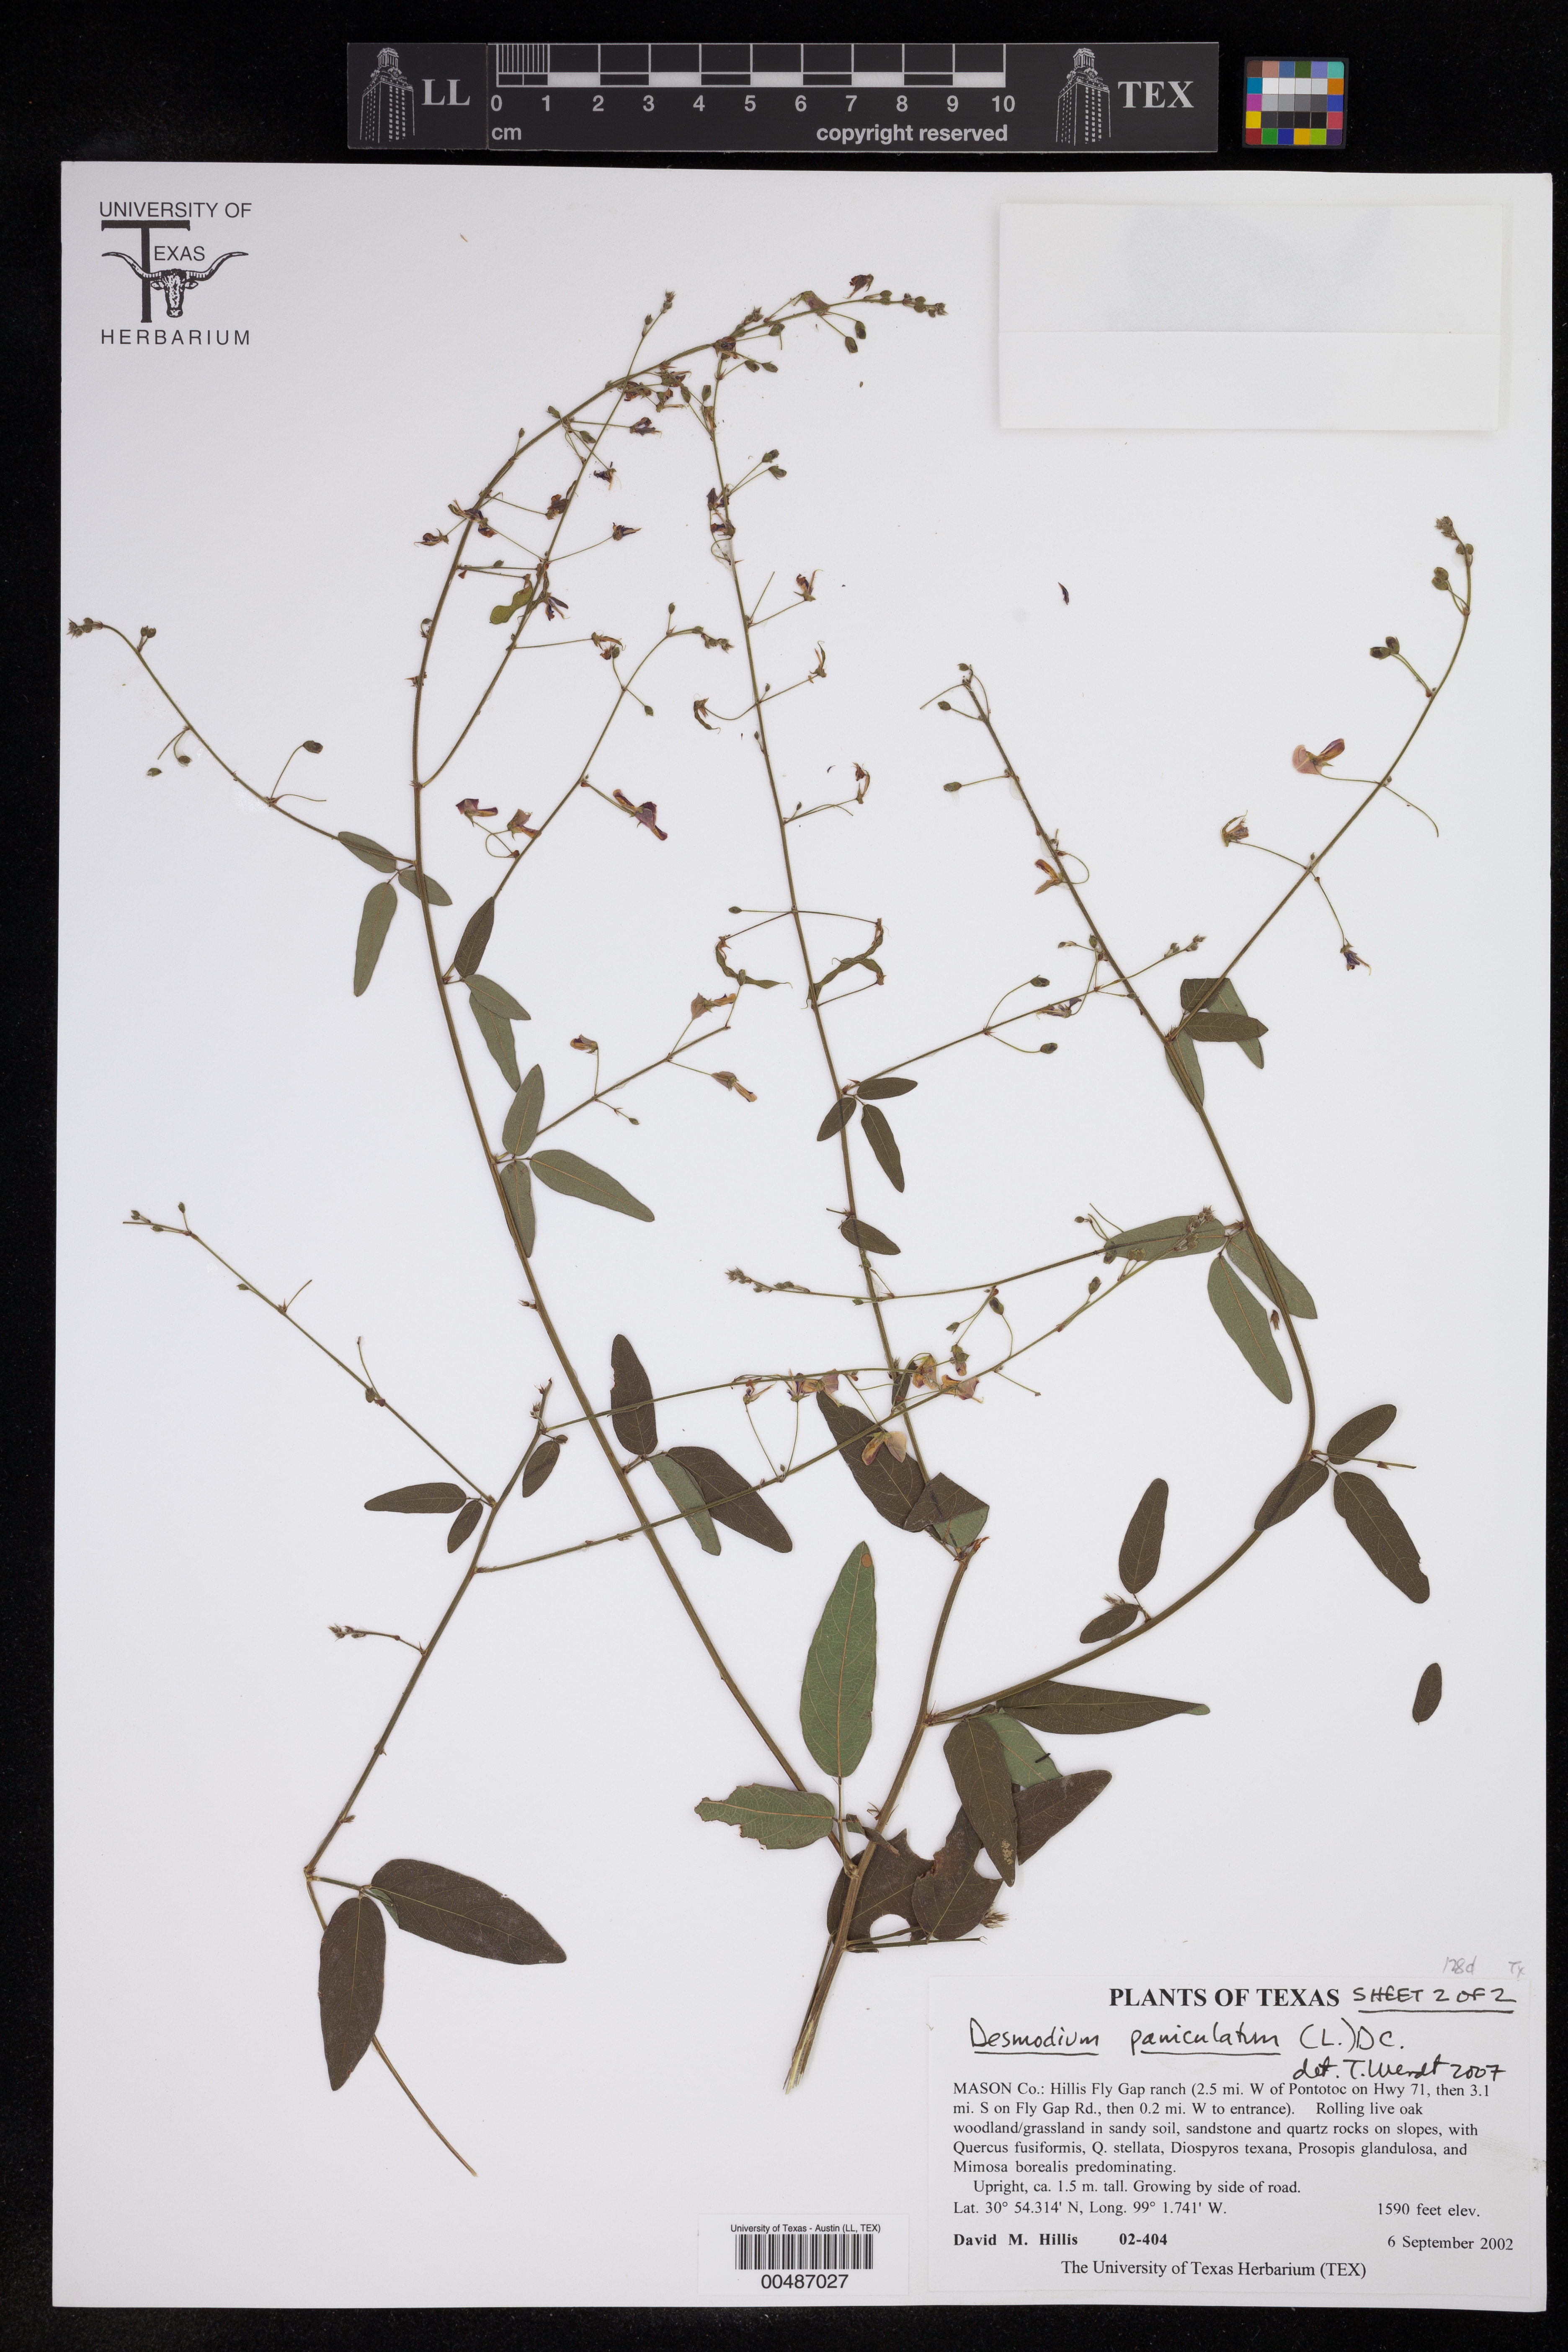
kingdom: Plantae
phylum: Tracheophyta
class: Magnoliopsida
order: Fabales
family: Fabaceae
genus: Desmodium
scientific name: Desmodium paniculatum
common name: Panicled tick-clover
